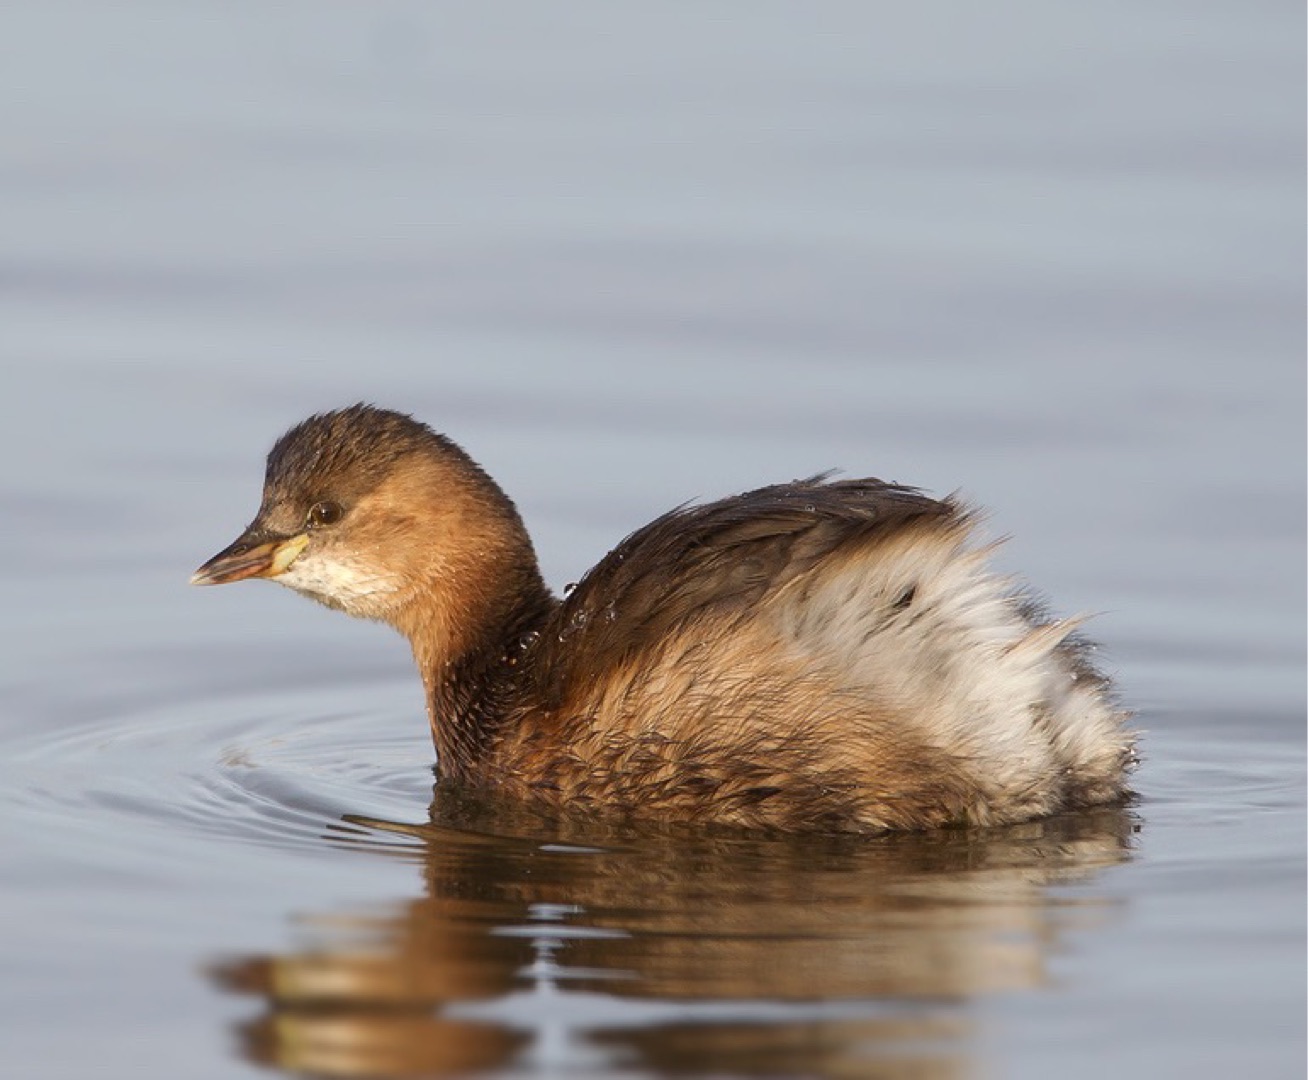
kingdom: Animalia
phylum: Chordata
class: Aves
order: Podicipediformes
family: Podicipedidae
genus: Tachybaptus
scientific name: Tachybaptus ruficollis
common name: Lille lappedykker
